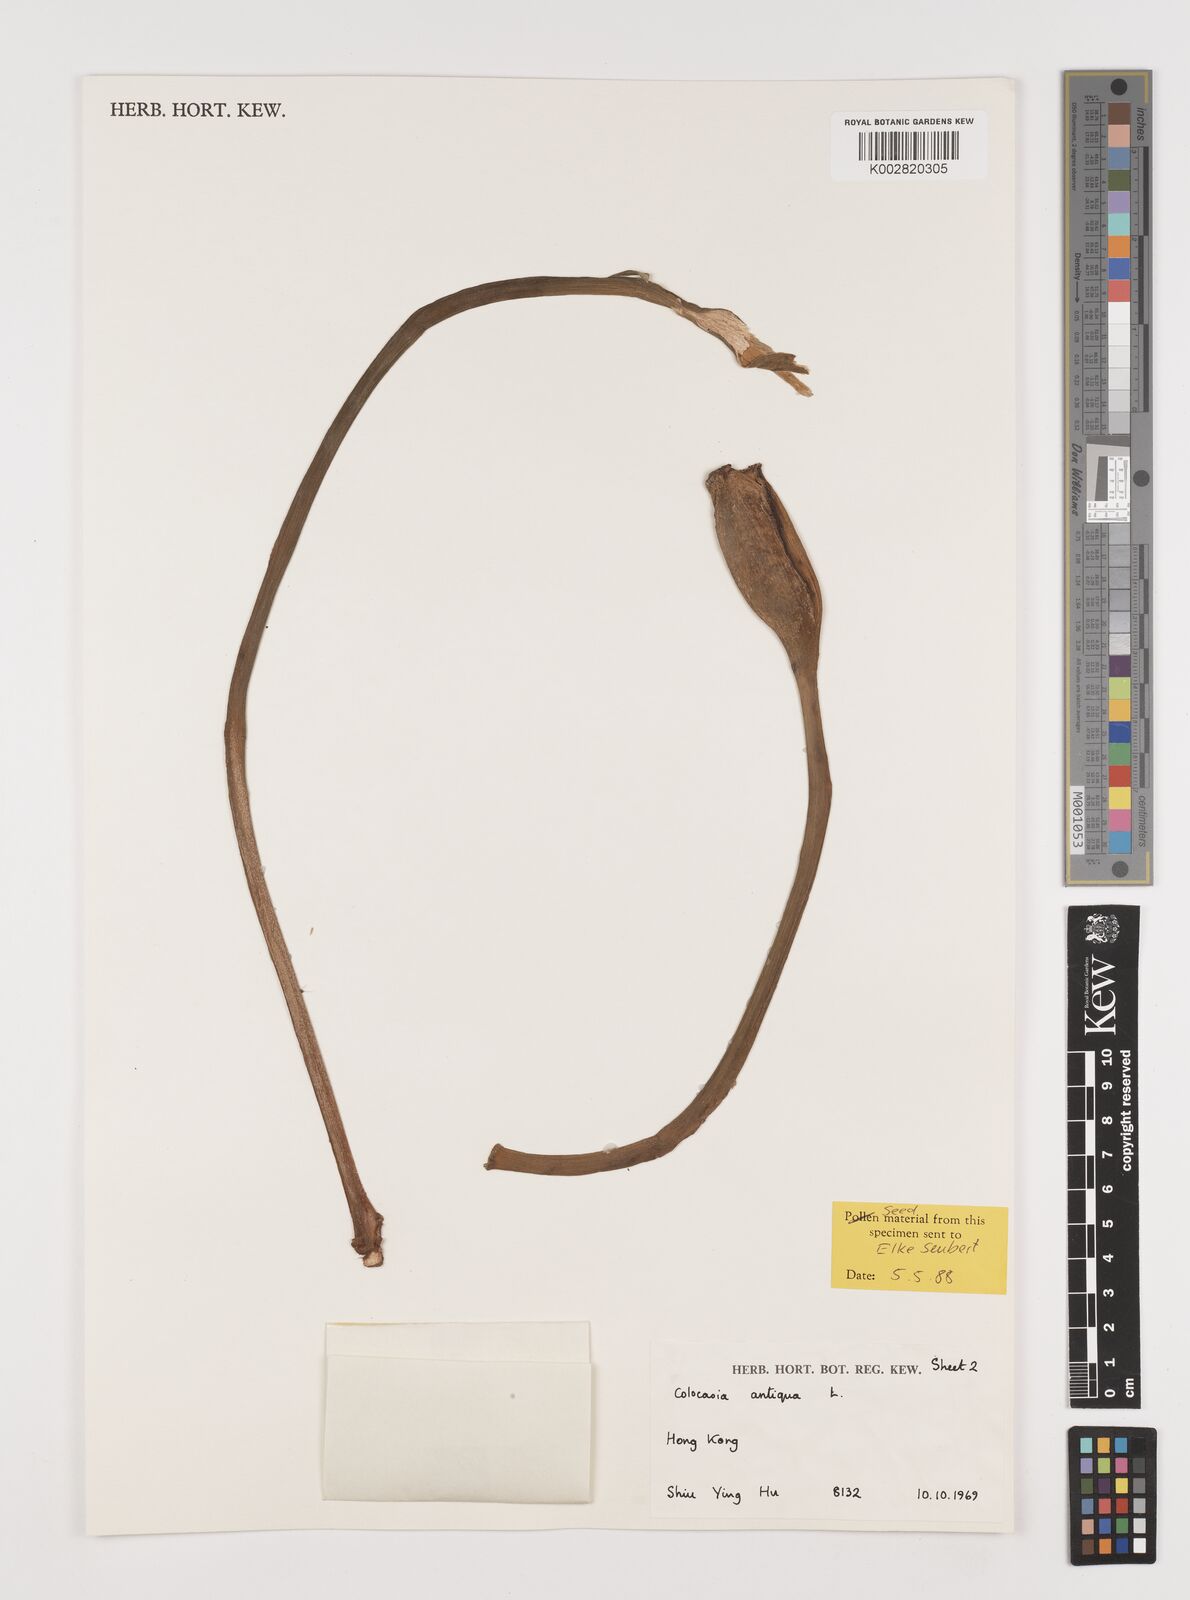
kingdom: Plantae
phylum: Tracheophyta
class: Liliopsida
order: Alismatales
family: Araceae
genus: Colocasia
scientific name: Colocasia esculenta
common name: Taro
